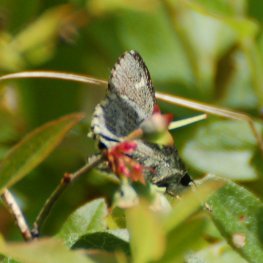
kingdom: Animalia
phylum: Arthropoda
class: Insecta
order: Lepidoptera
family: Hesperiidae
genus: Mastor
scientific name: Mastor hegon
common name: Pepper and Salt Skipper
